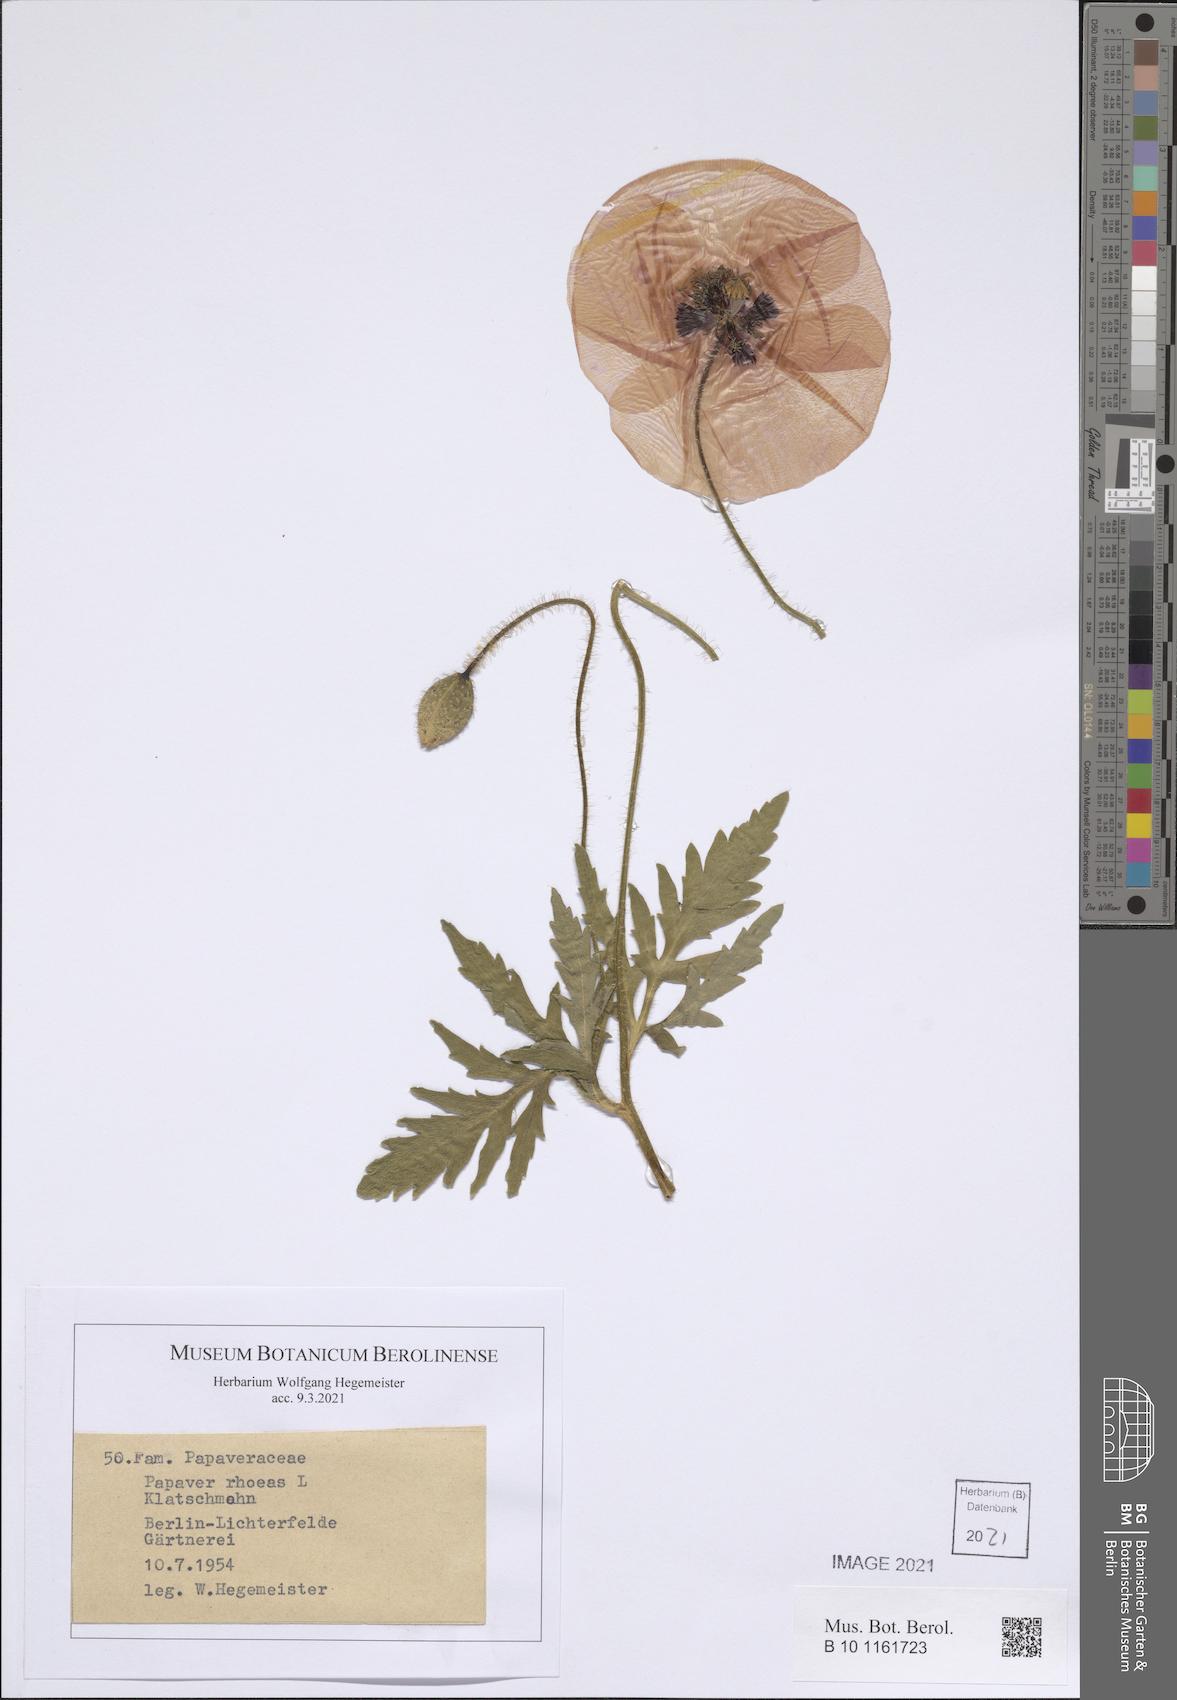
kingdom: Plantae
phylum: Tracheophyta
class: Magnoliopsida
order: Ranunculales
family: Papaveraceae
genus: Papaver
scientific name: Papaver rhoeas
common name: Corn poppy
